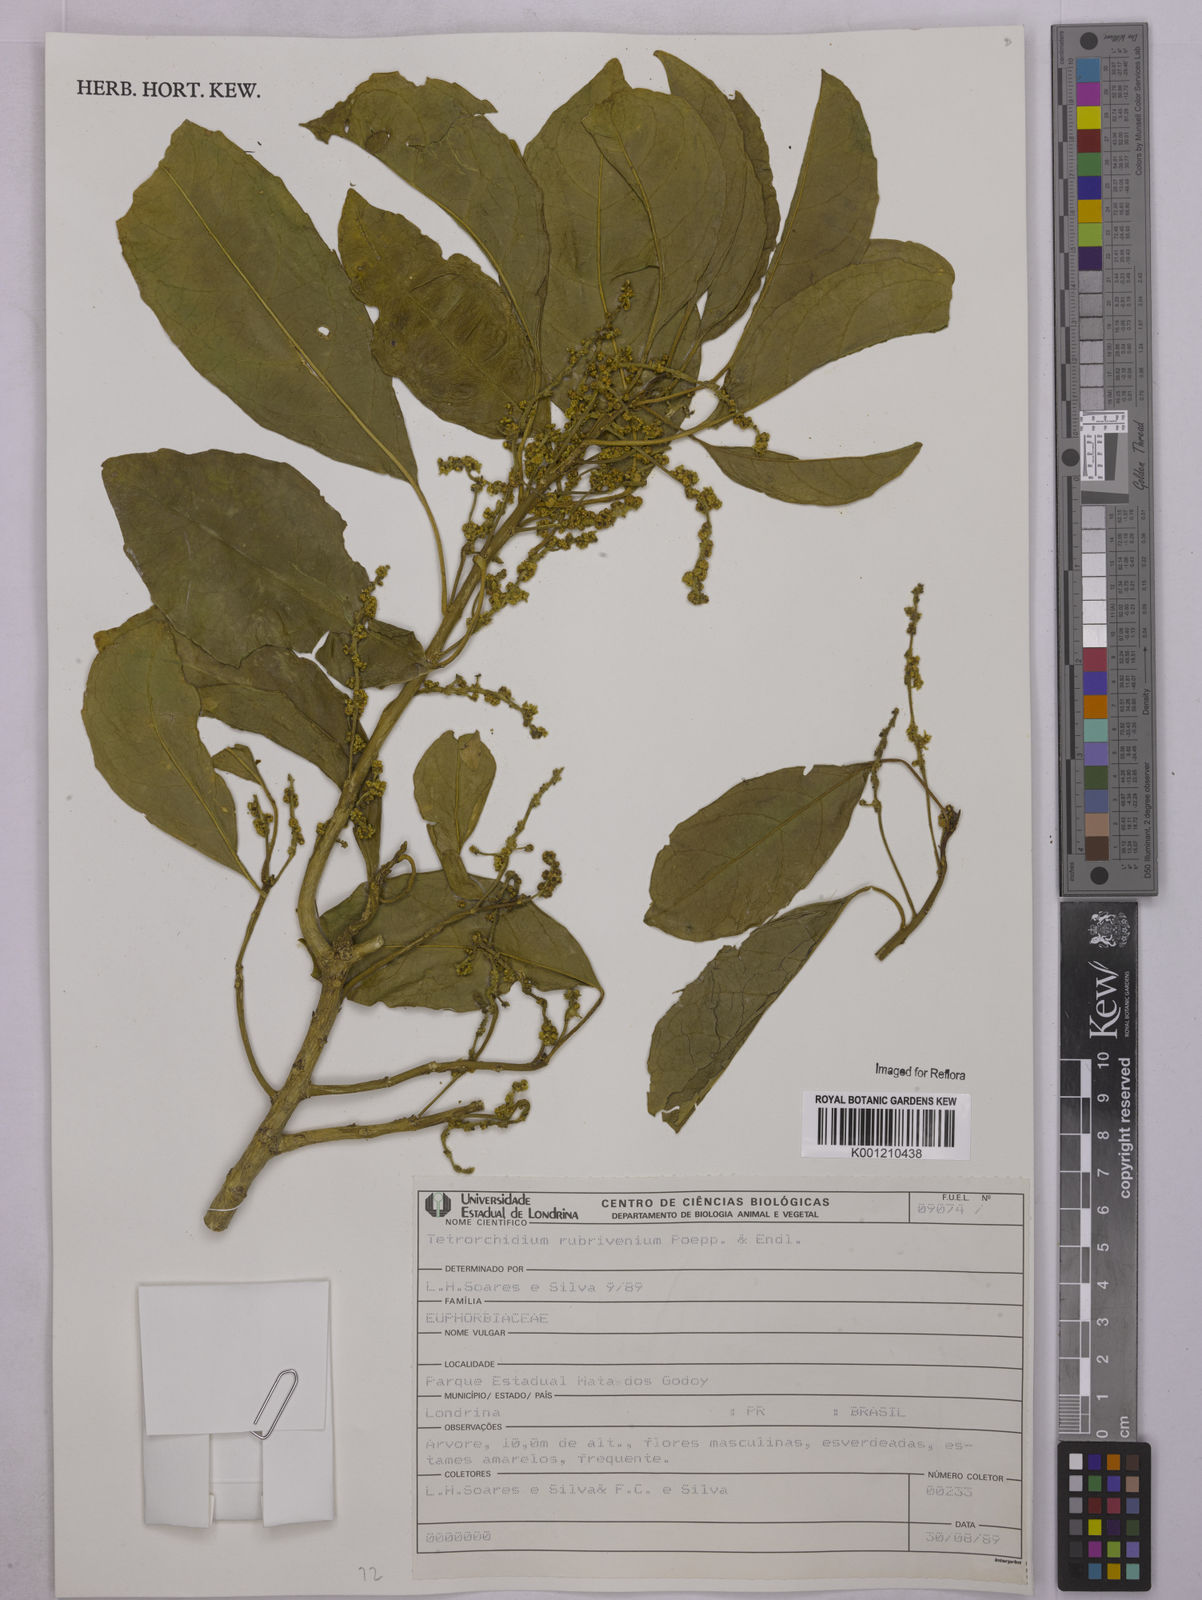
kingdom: Plantae
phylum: Tracheophyta
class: Magnoliopsida
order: Malpighiales
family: Euphorbiaceae
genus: Tetrorchidium
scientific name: Tetrorchidium rubrivenium
